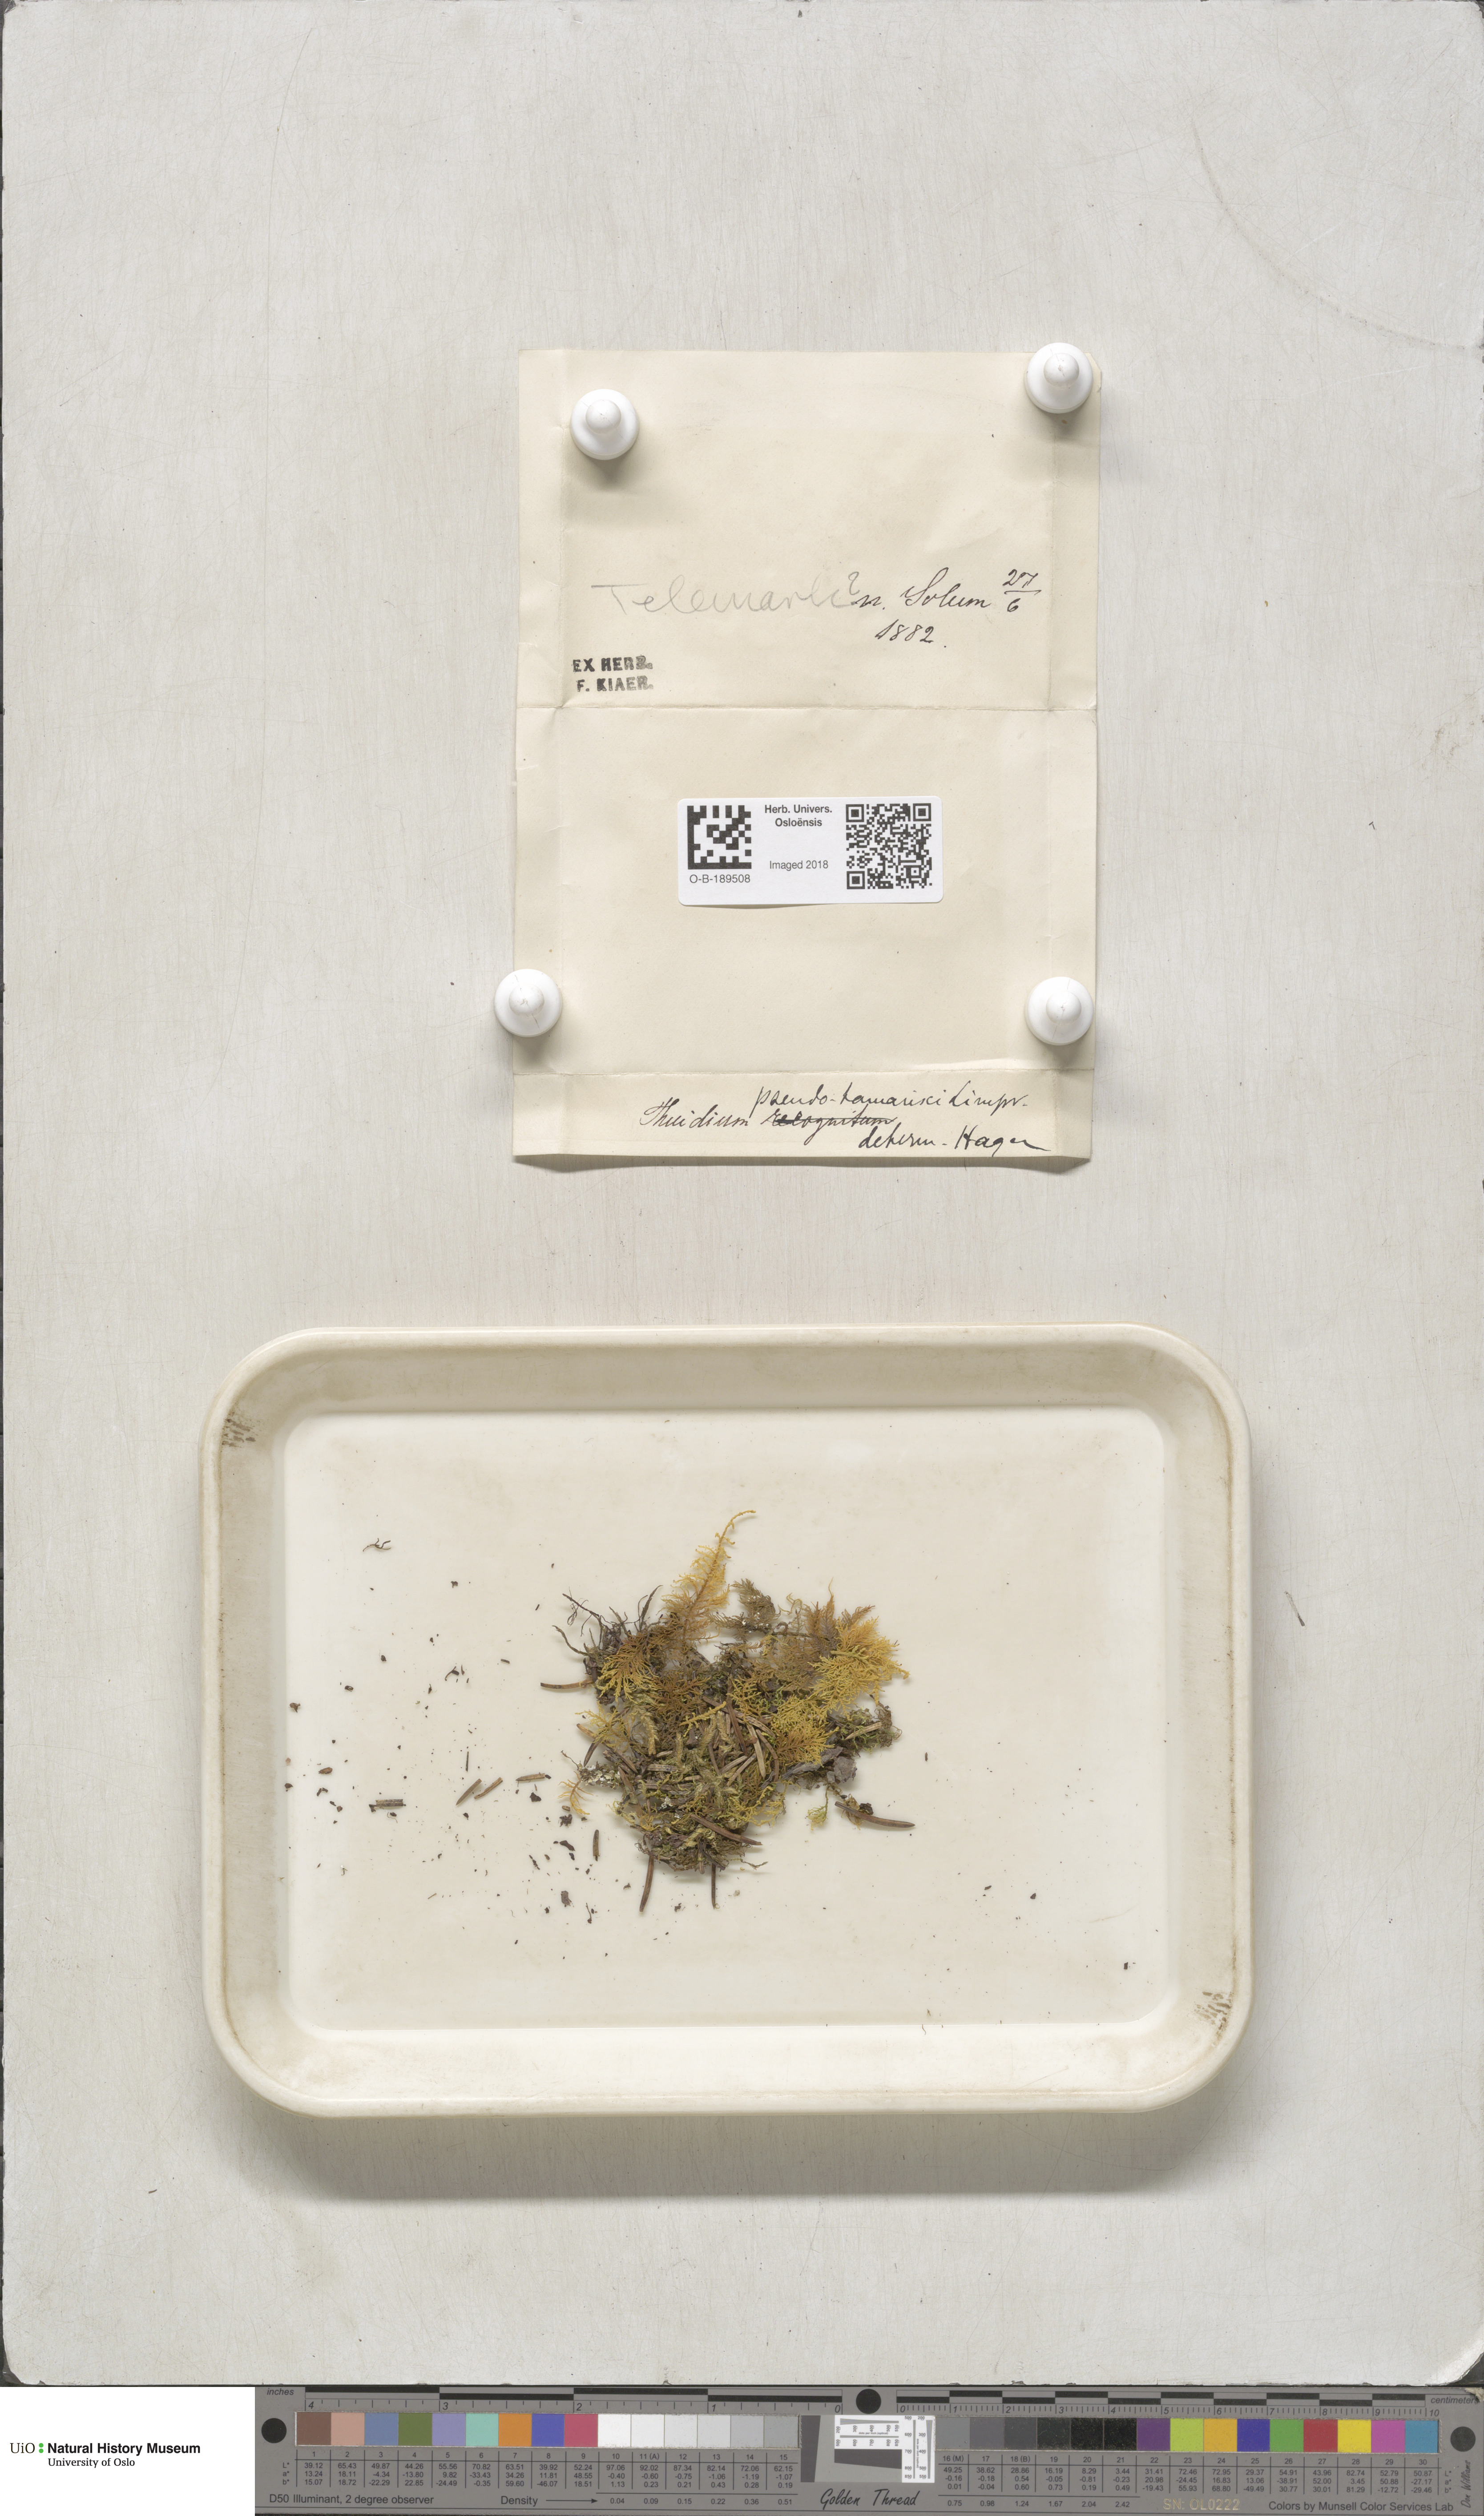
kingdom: Plantae
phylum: Bryophyta
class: Bryopsida
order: Hypnales
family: Thuidiaceae
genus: Thuidium
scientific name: Thuidium assimile
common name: Philibert's fern moss
